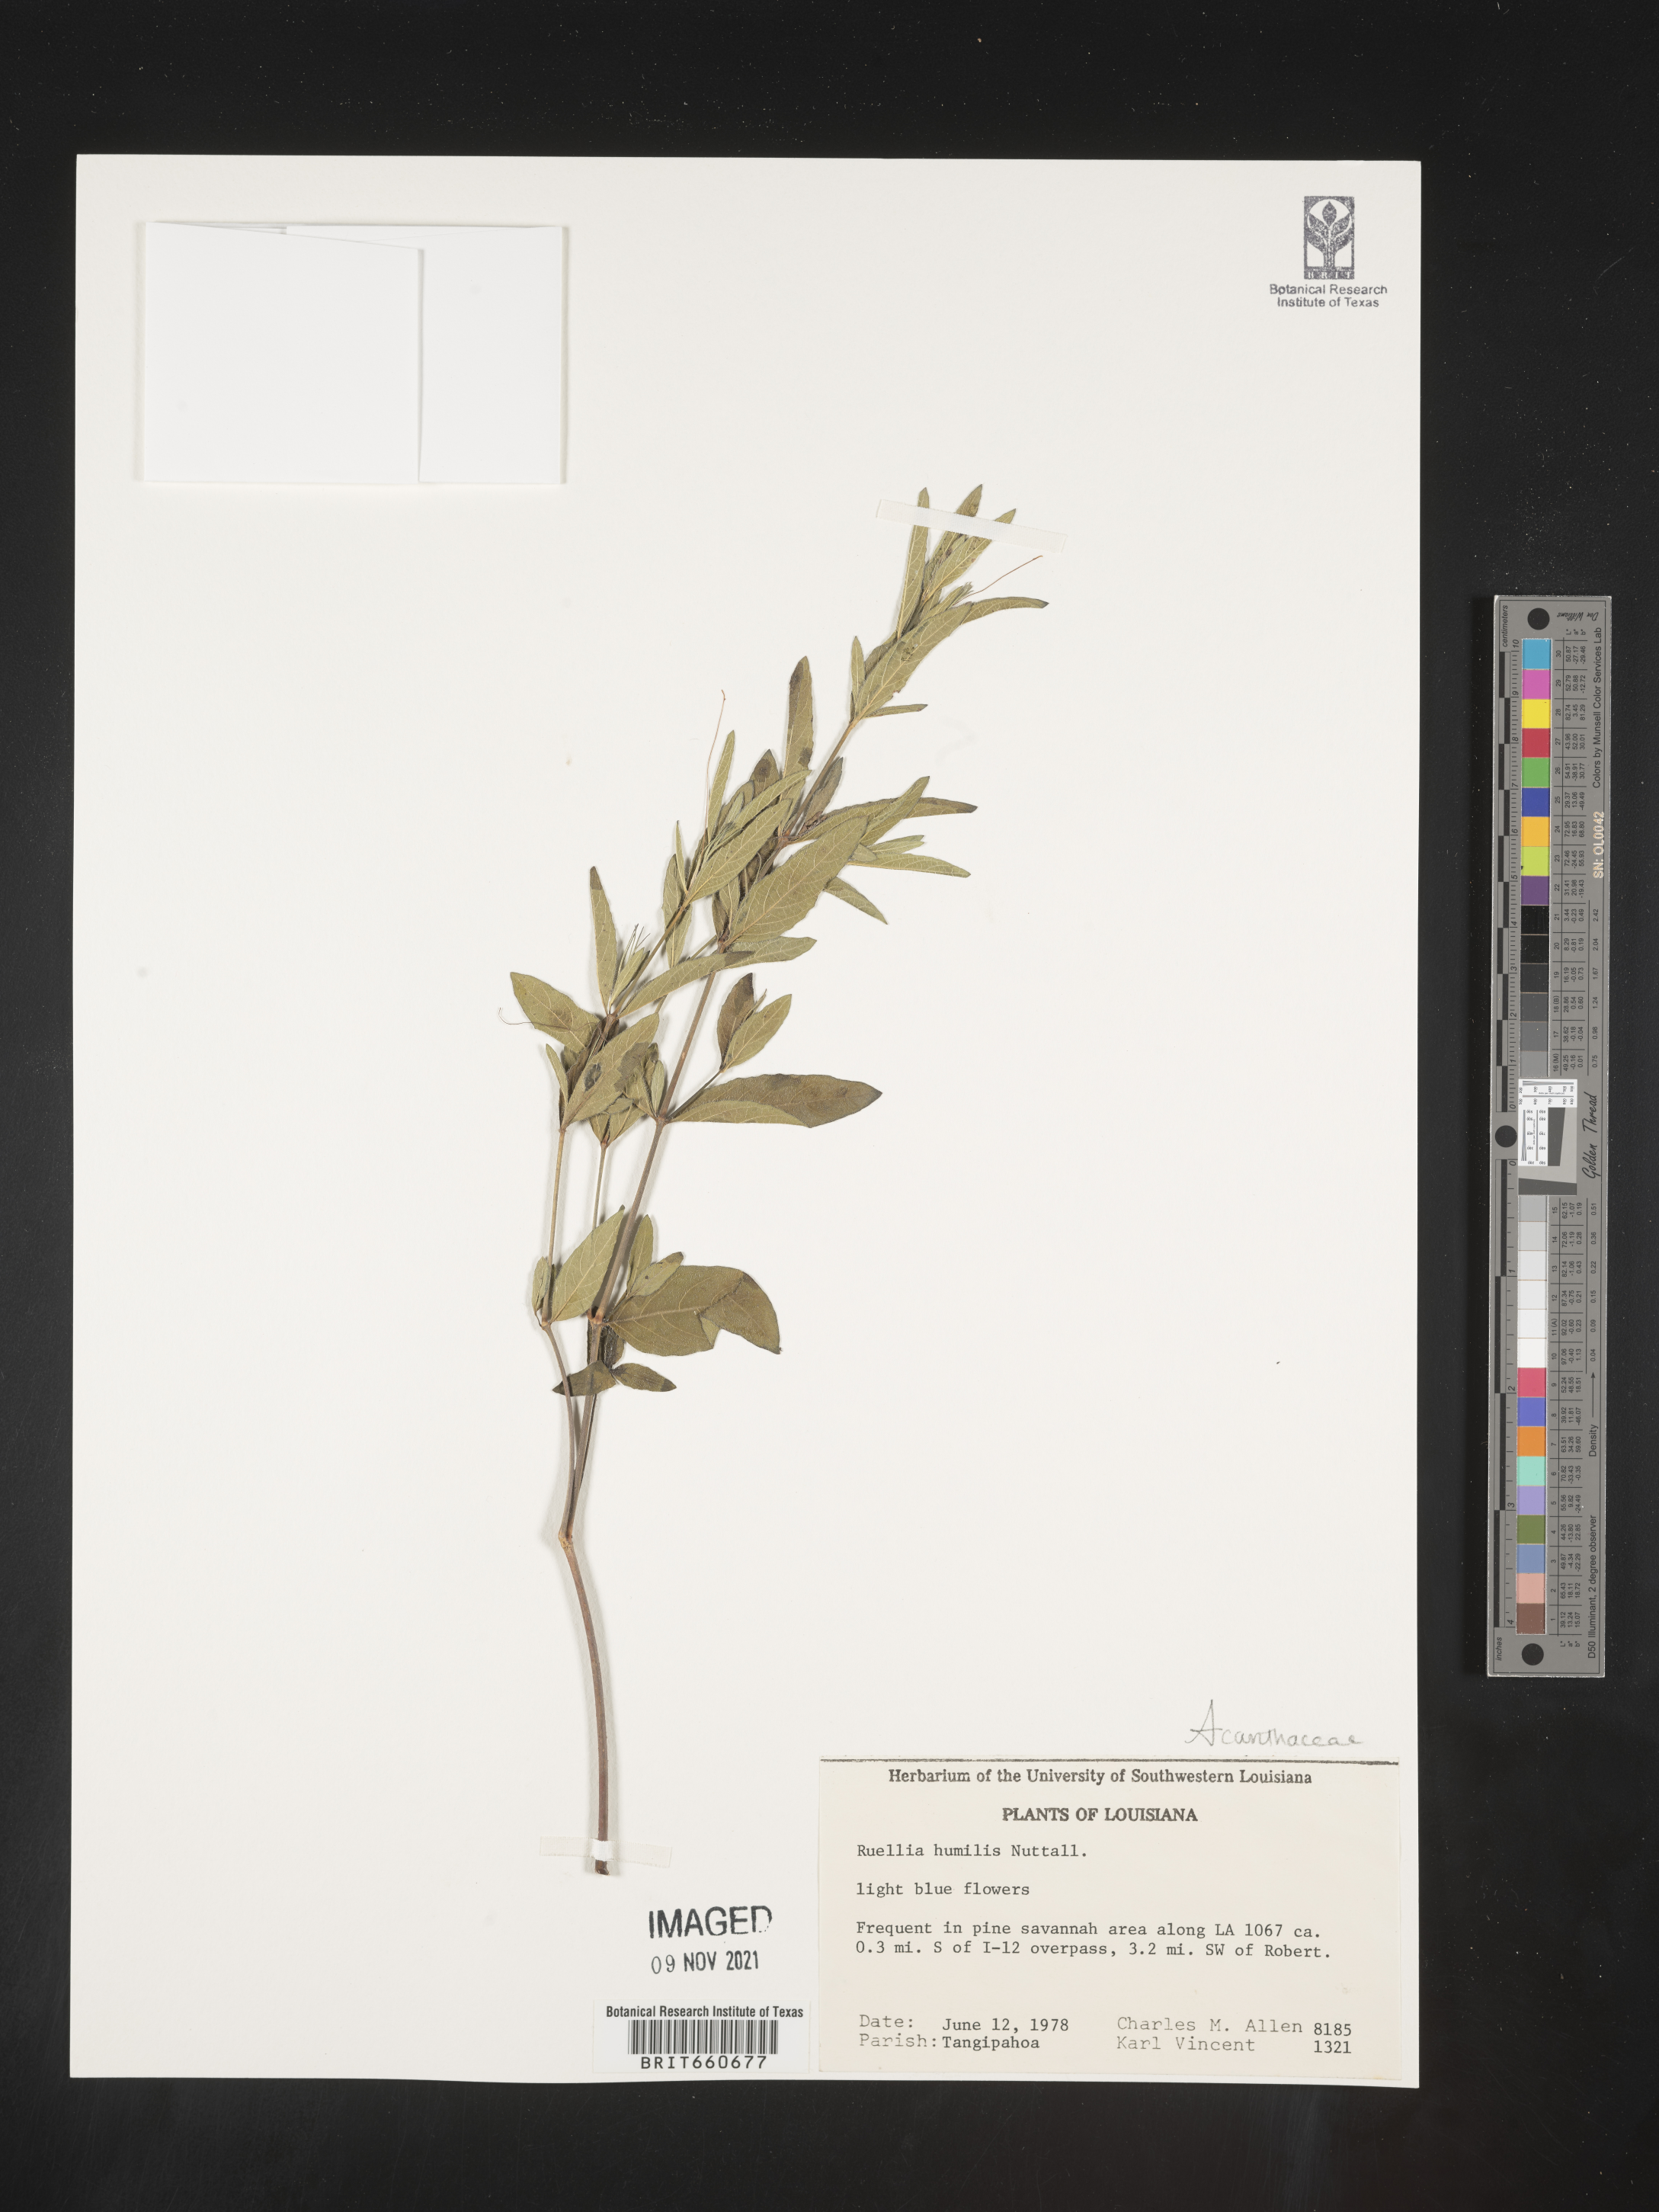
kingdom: Plantae
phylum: Tracheophyta
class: Magnoliopsida
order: Lamiales
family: Acanthaceae
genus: Ruellia
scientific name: Ruellia humilis
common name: Fringe-leaf ruellia
